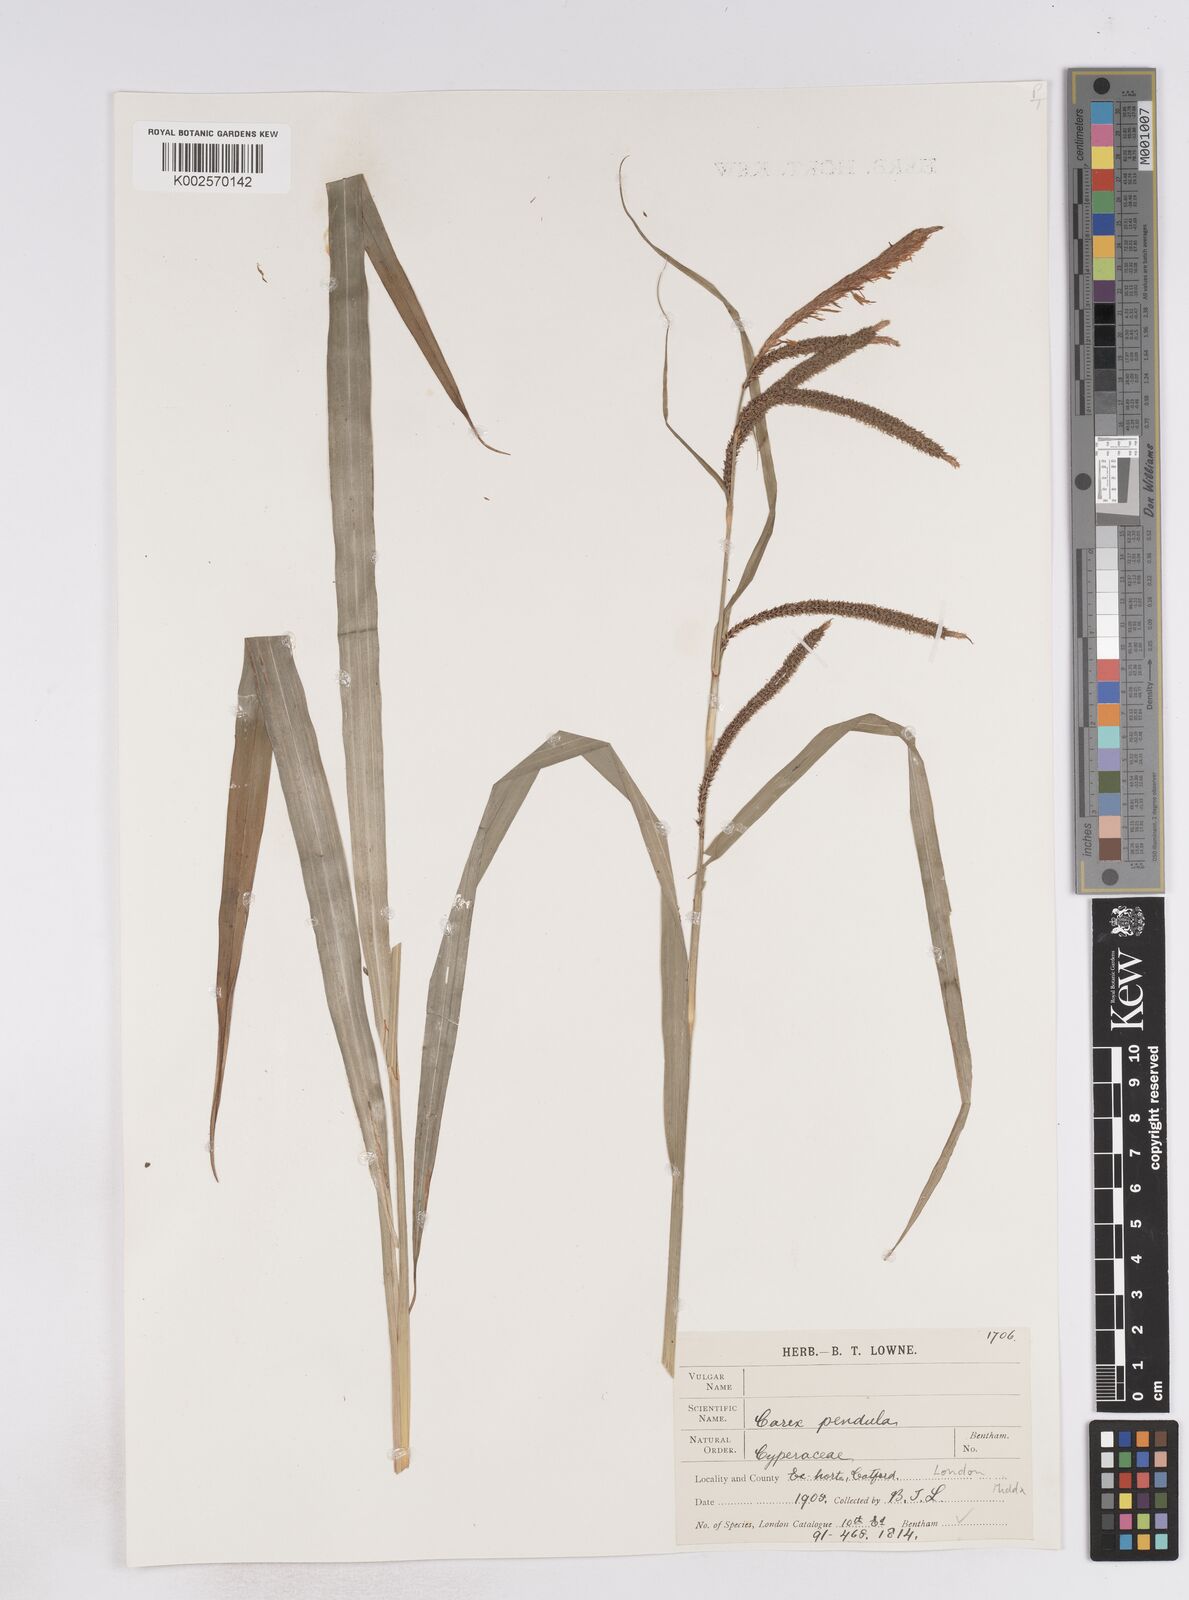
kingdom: Plantae
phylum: Tracheophyta
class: Liliopsida
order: Poales
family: Cyperaceae
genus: Carex
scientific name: Carex pendula
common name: Pendulous sedge
